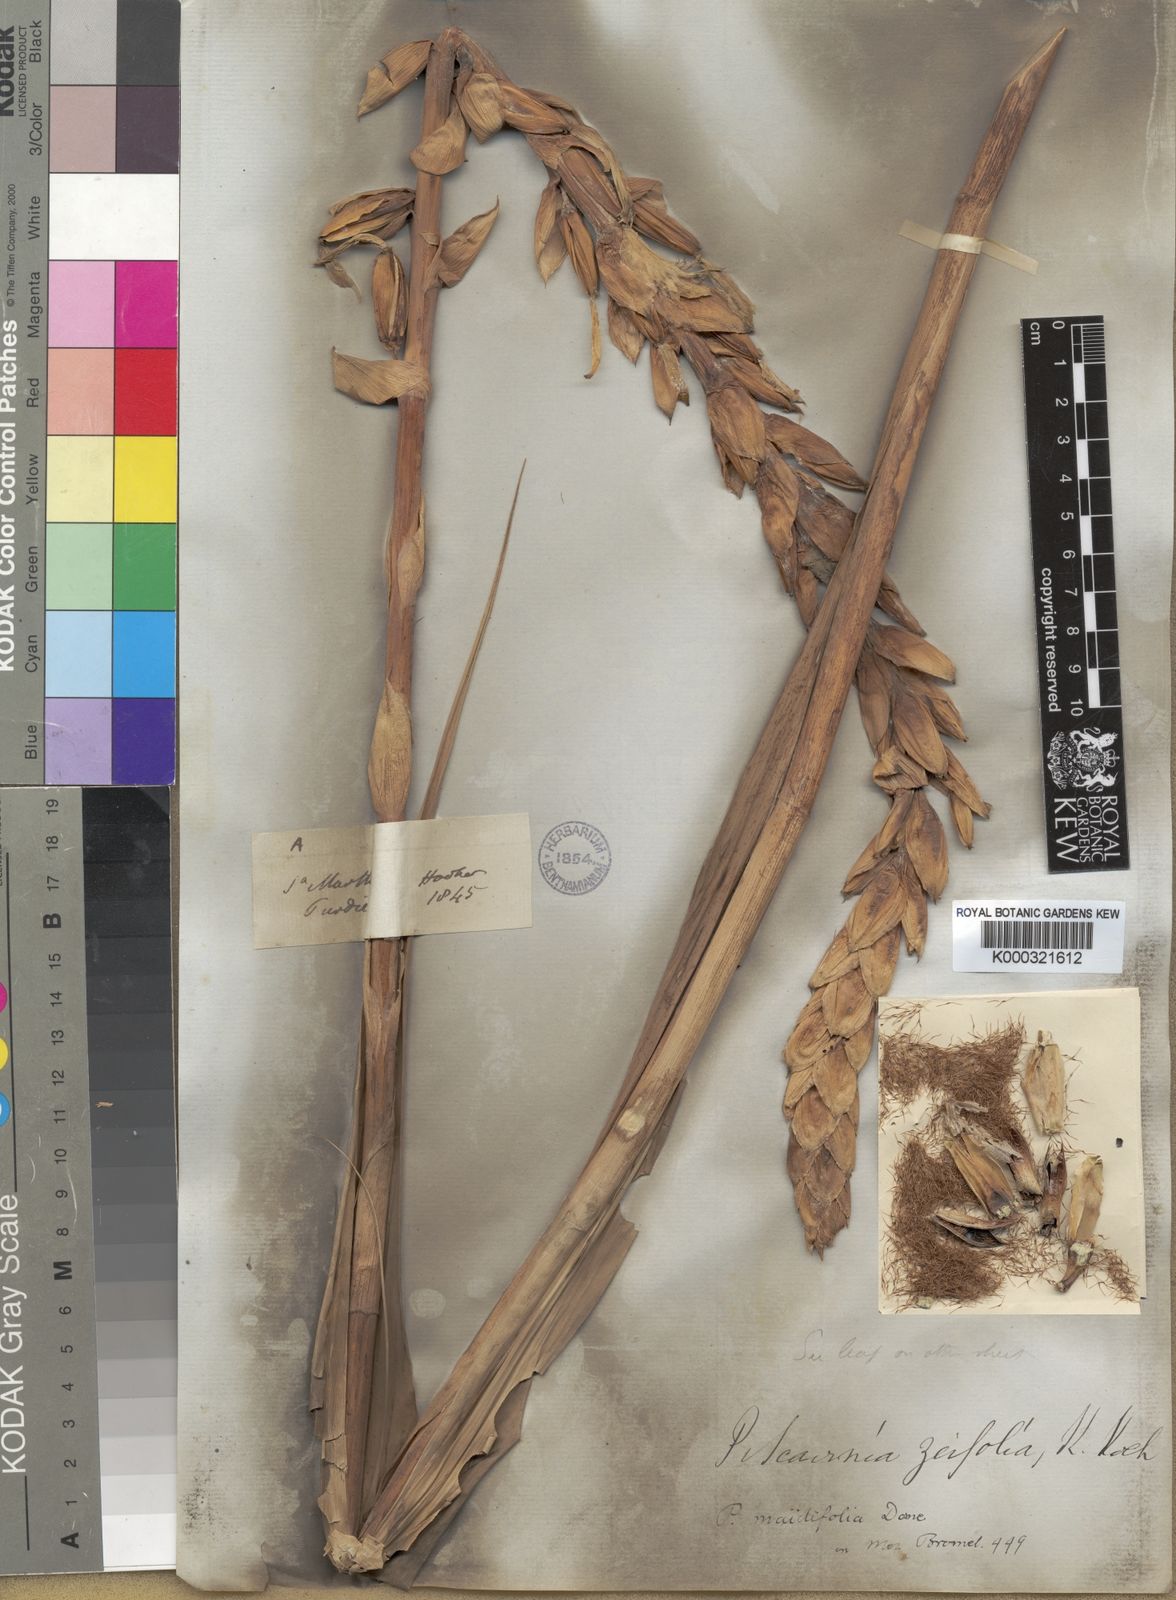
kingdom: Plantae
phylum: Tracheophyta
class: Liliopsida
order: Poales
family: Bromeliaceae
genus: Pitcairnia
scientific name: Pitcairnia maidifolia
